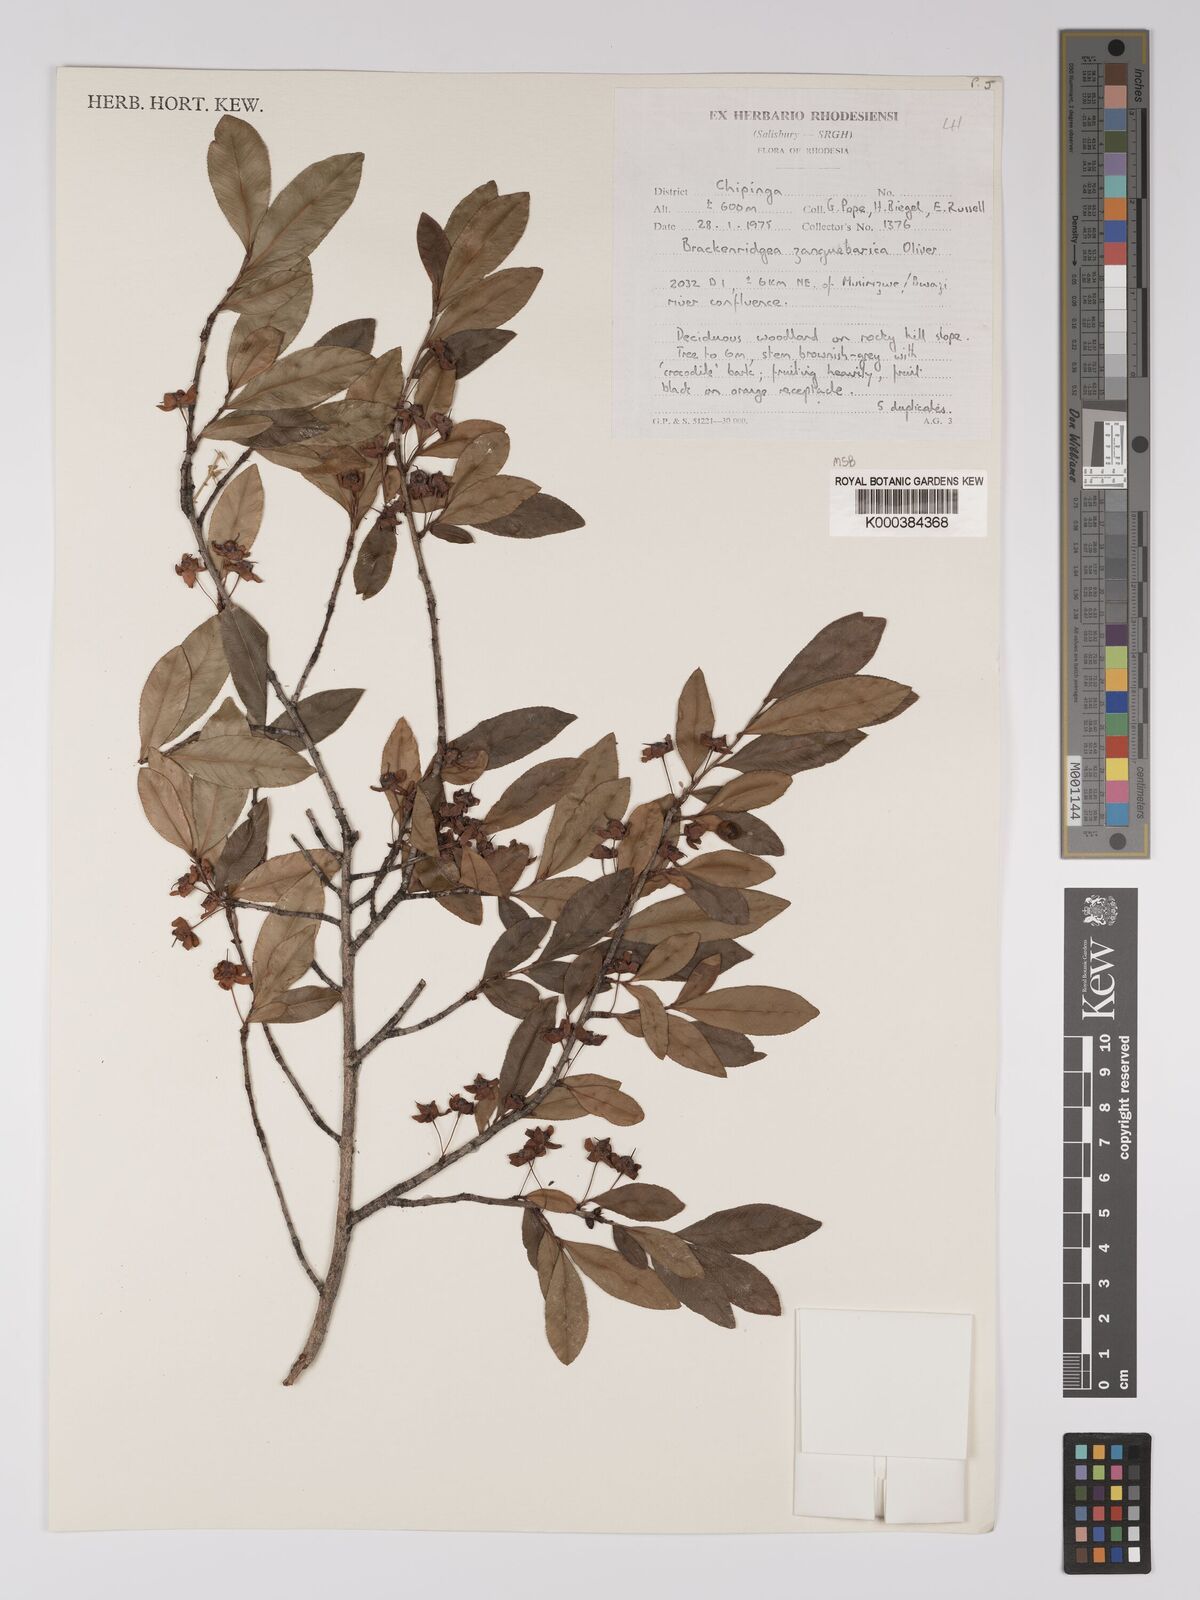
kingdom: Plantae
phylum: Tracheophyta
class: Magnoliopsida
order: Malpighiales
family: Ochnaceae
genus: Brackenridgea
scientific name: Brackenridgea zanguebarica
